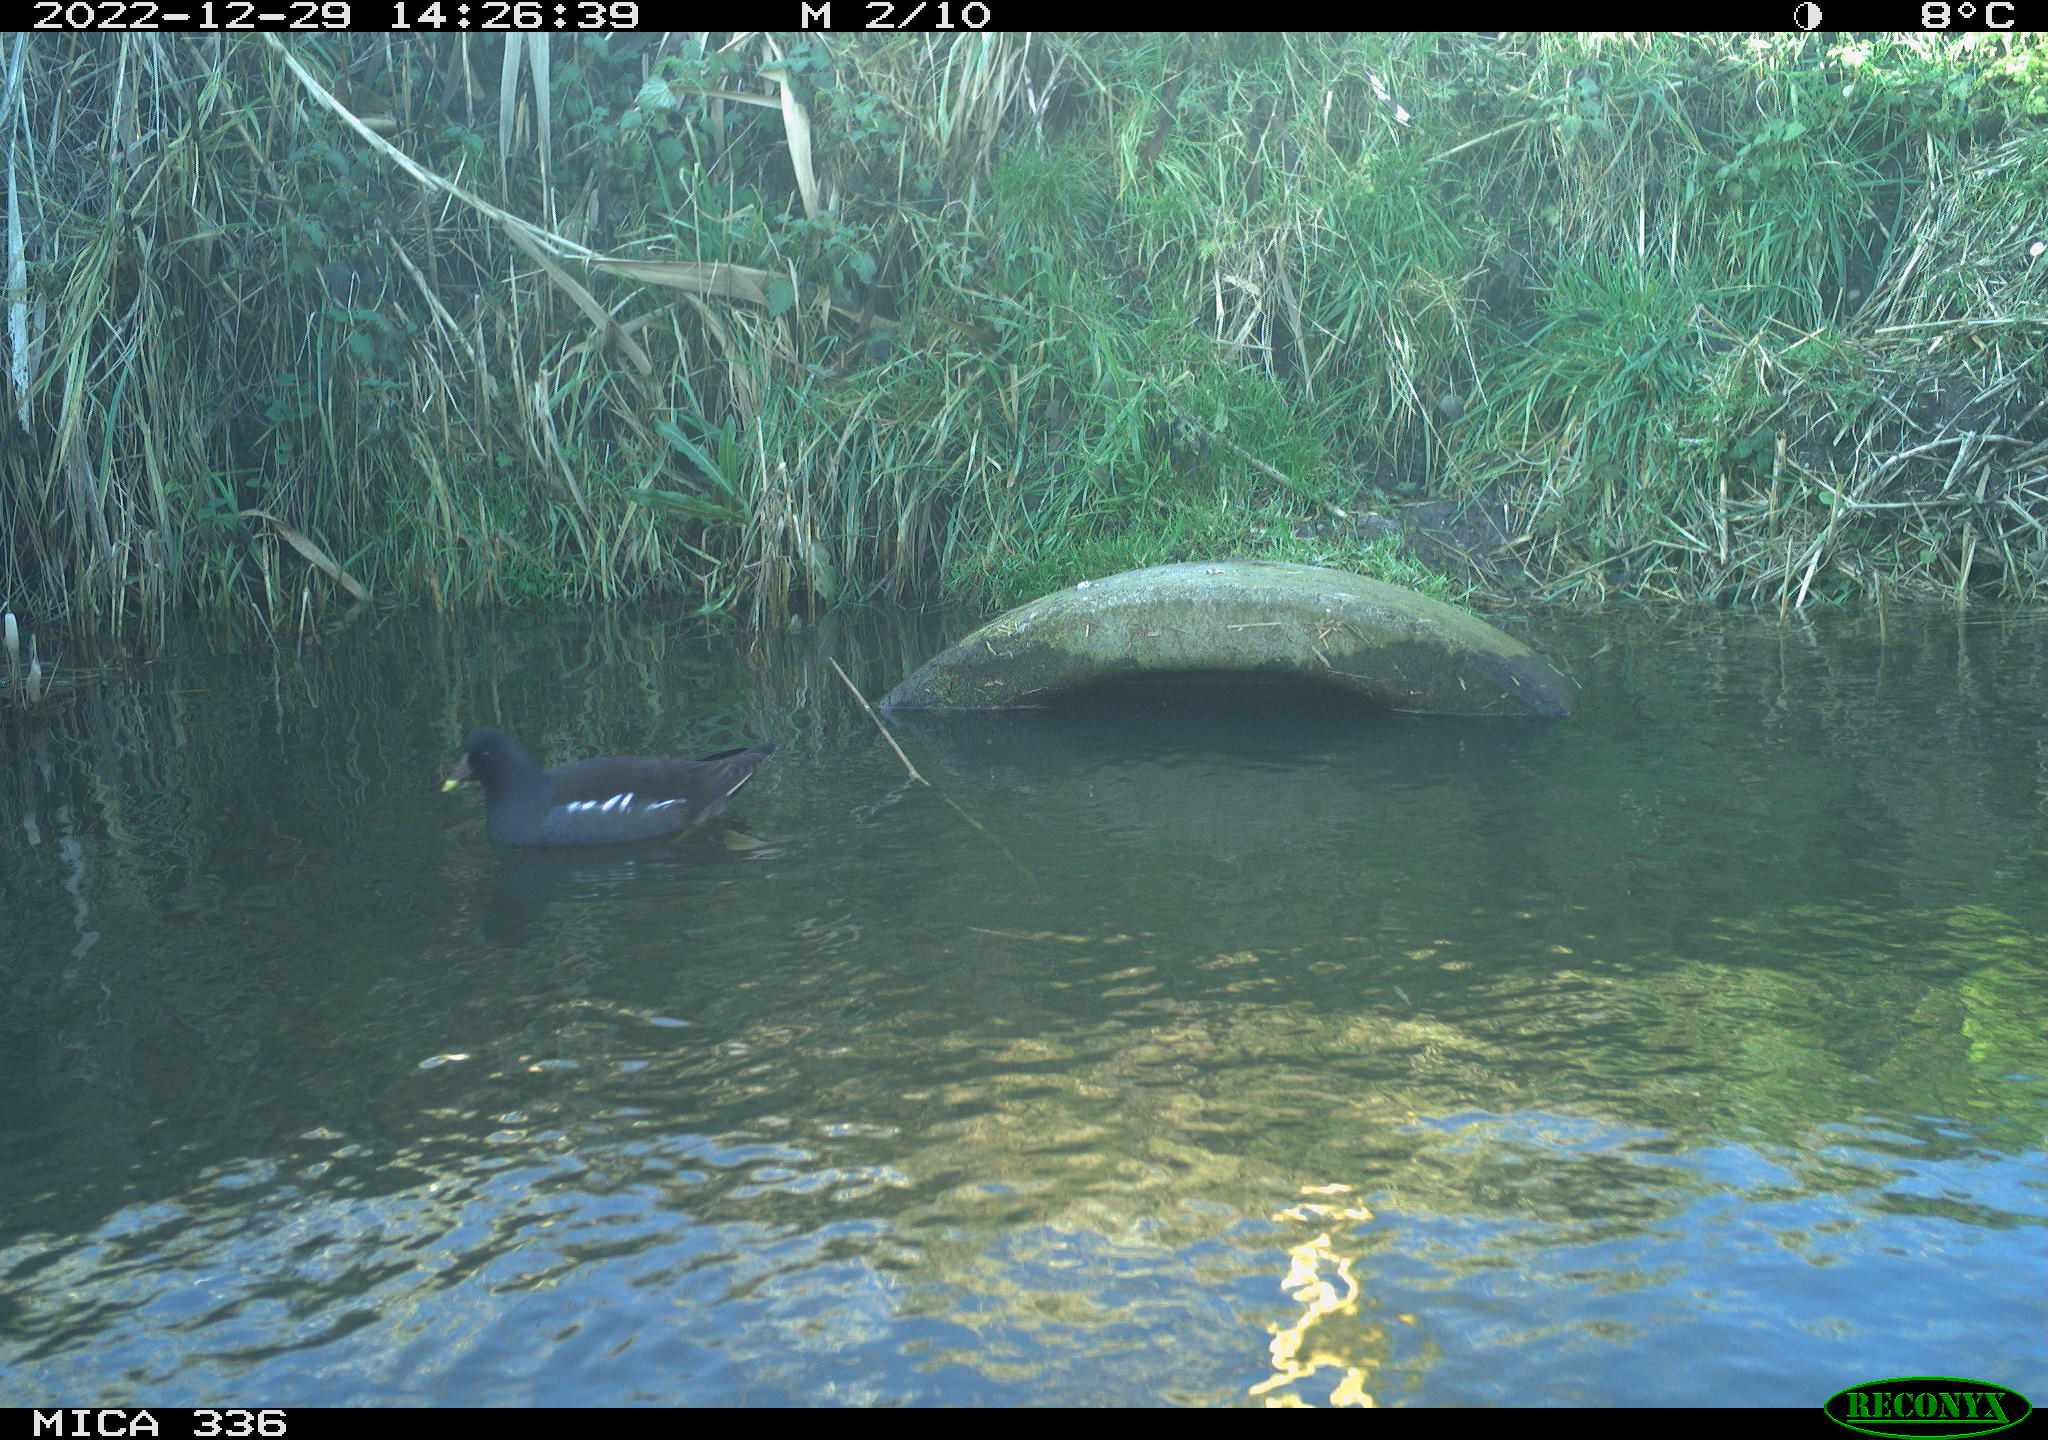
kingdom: Animalia
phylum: Chordata
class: Aves
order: Gruiformes
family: Rallidae
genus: Gallinula
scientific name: Gallinula chloropus
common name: Common moorhen
